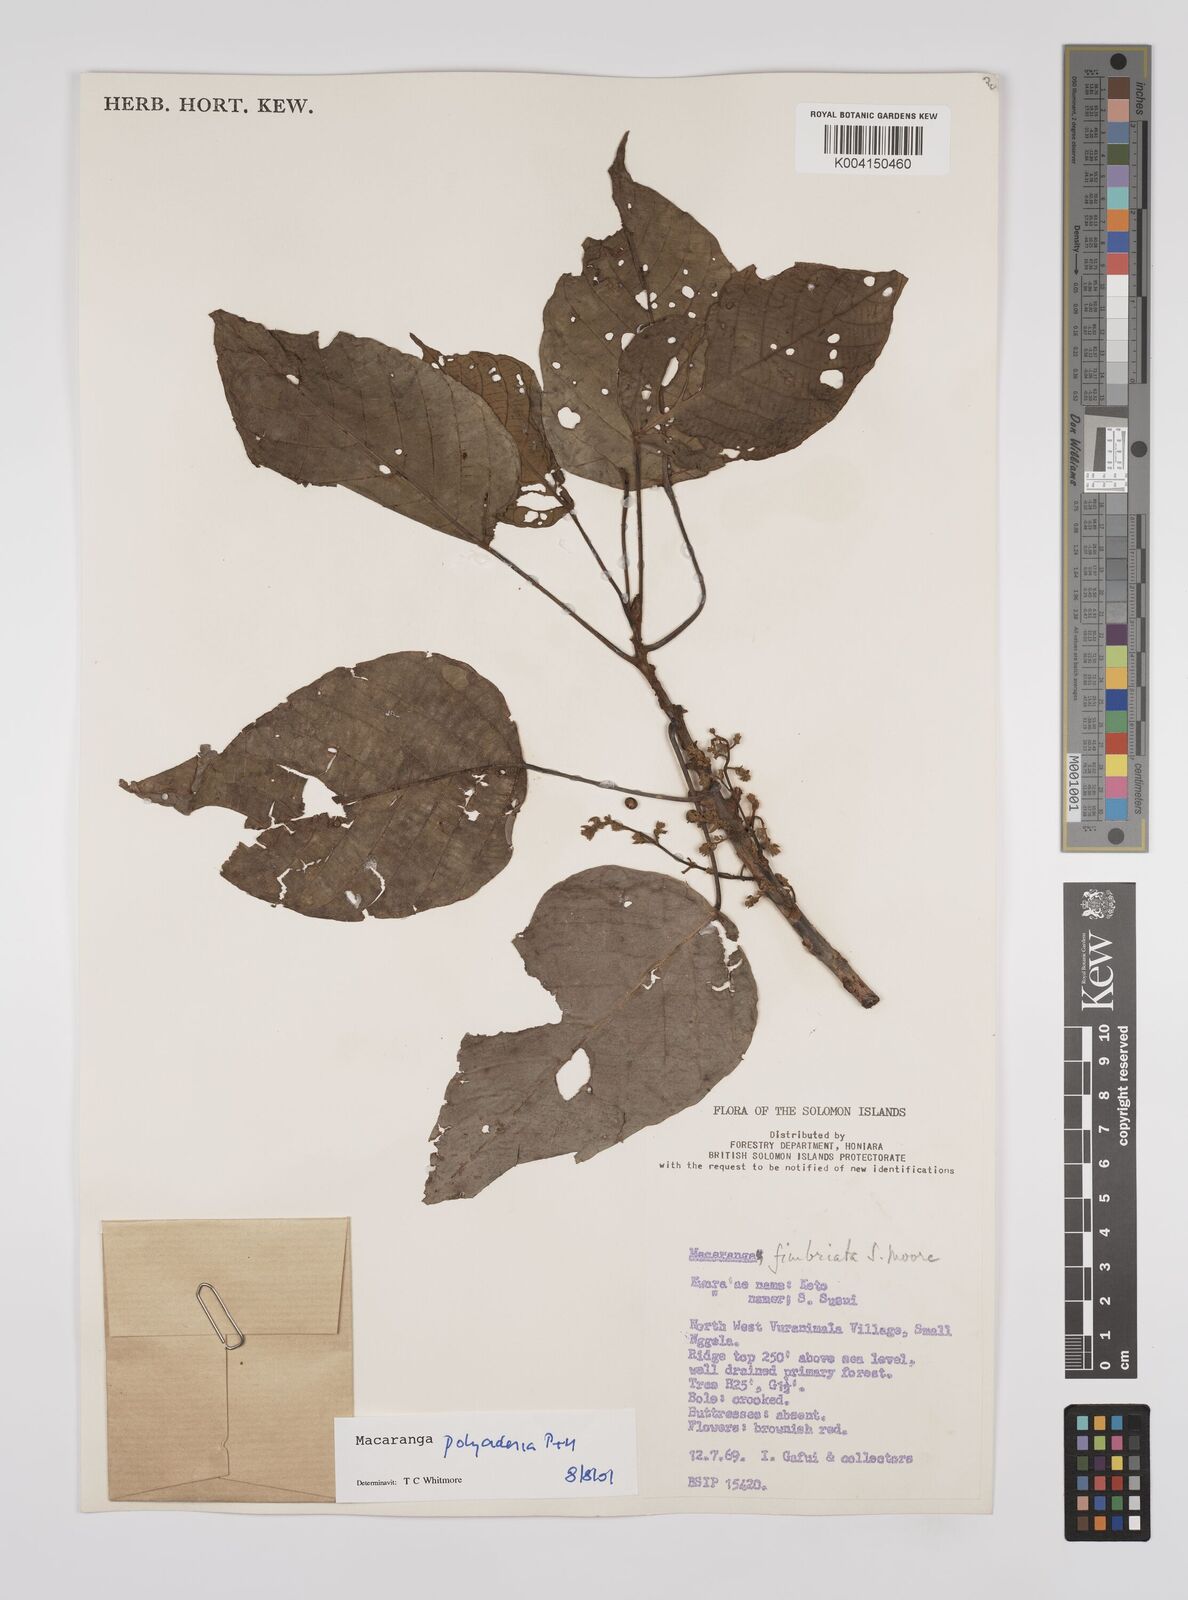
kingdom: Plantae
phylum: Tracheophyta
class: Magnoliopsida
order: Malpighiales
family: Euphorbiaceae
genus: Macaranga
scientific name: Macaranga polyadenia
